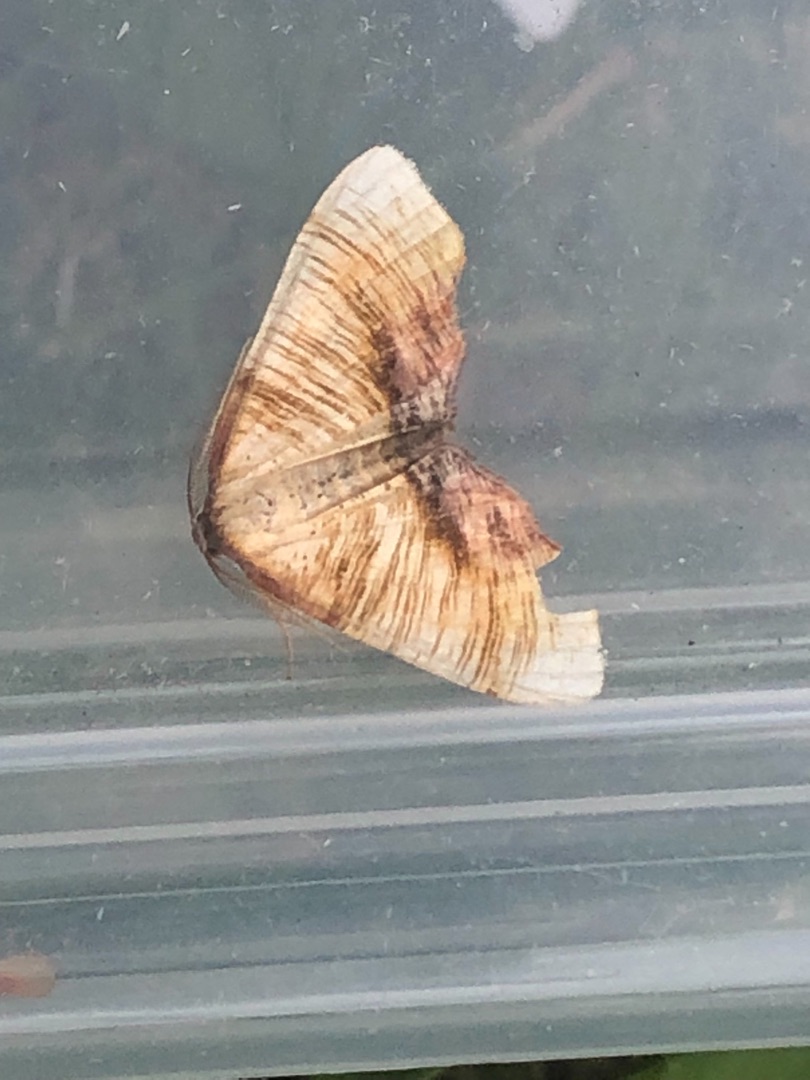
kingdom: Animalia
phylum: Arthropoda
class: Insecta
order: Lepidoptera
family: Geometridae
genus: Plagodis
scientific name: Plagodis dolabraria
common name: Smalvingemåler
